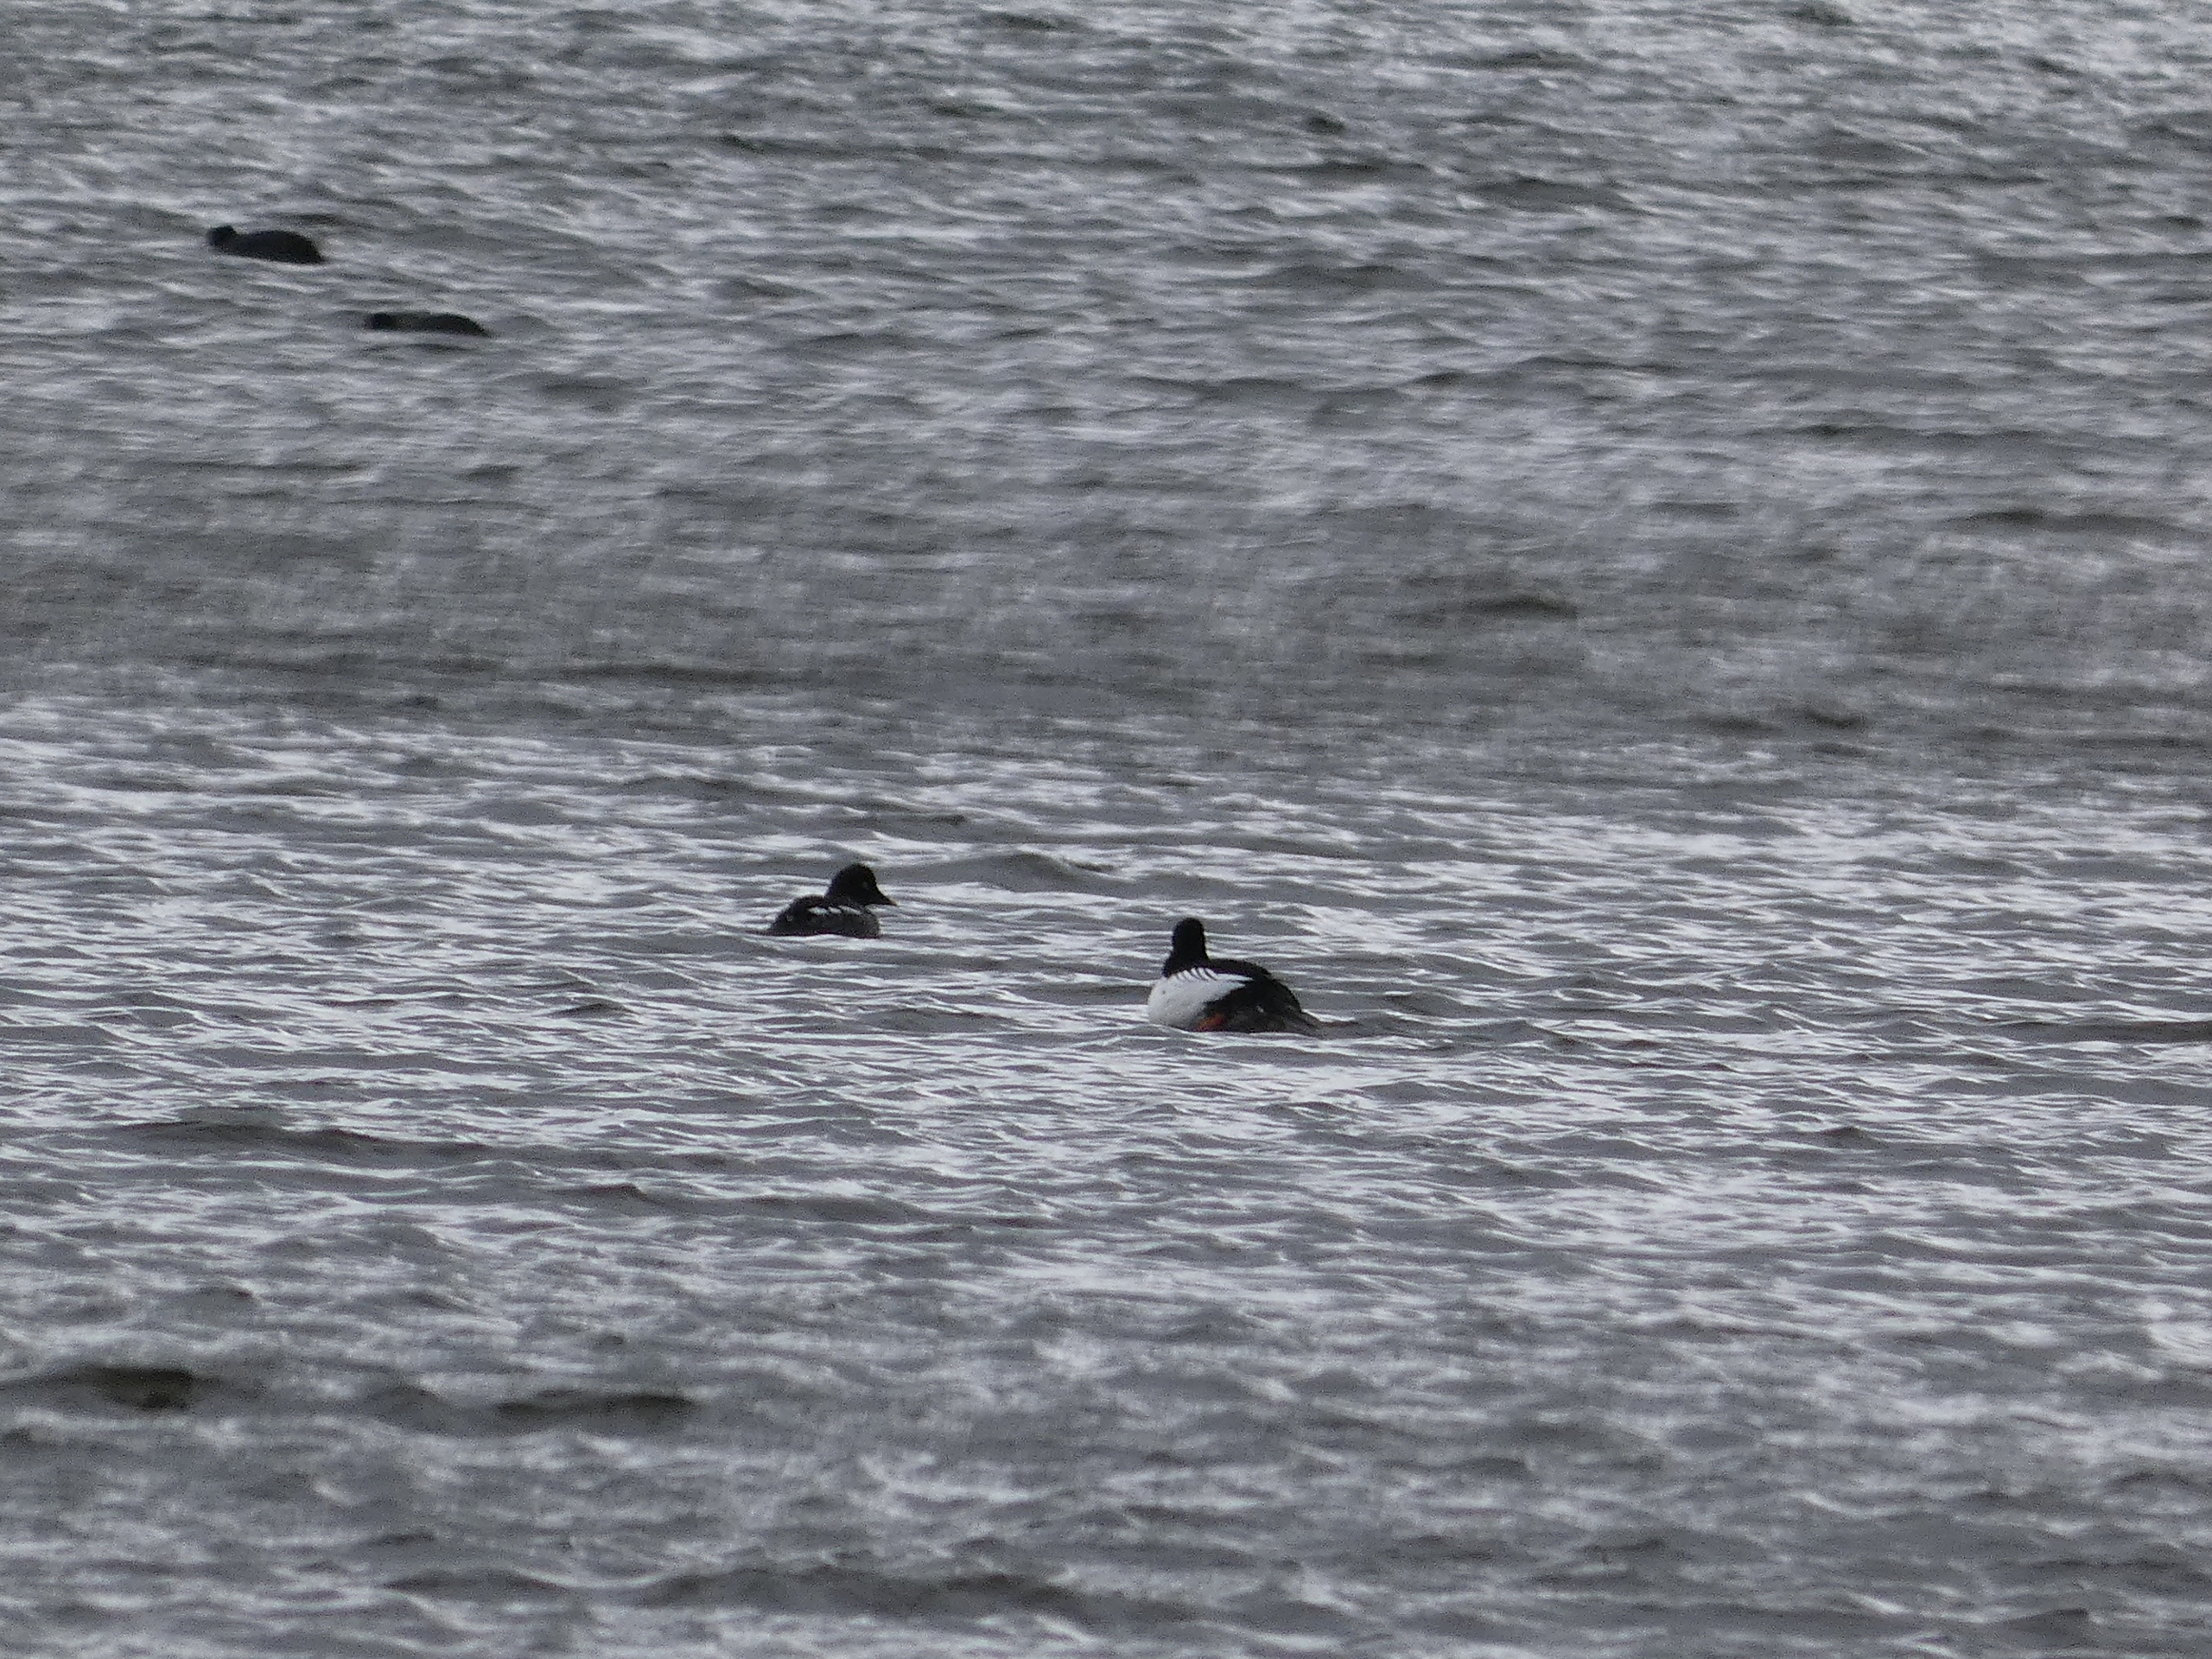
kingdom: Animalia
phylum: Chordata
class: Aves
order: Anseriformes
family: Anatidae
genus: Bucephala
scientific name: Bucephala clangula
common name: Hvinand
